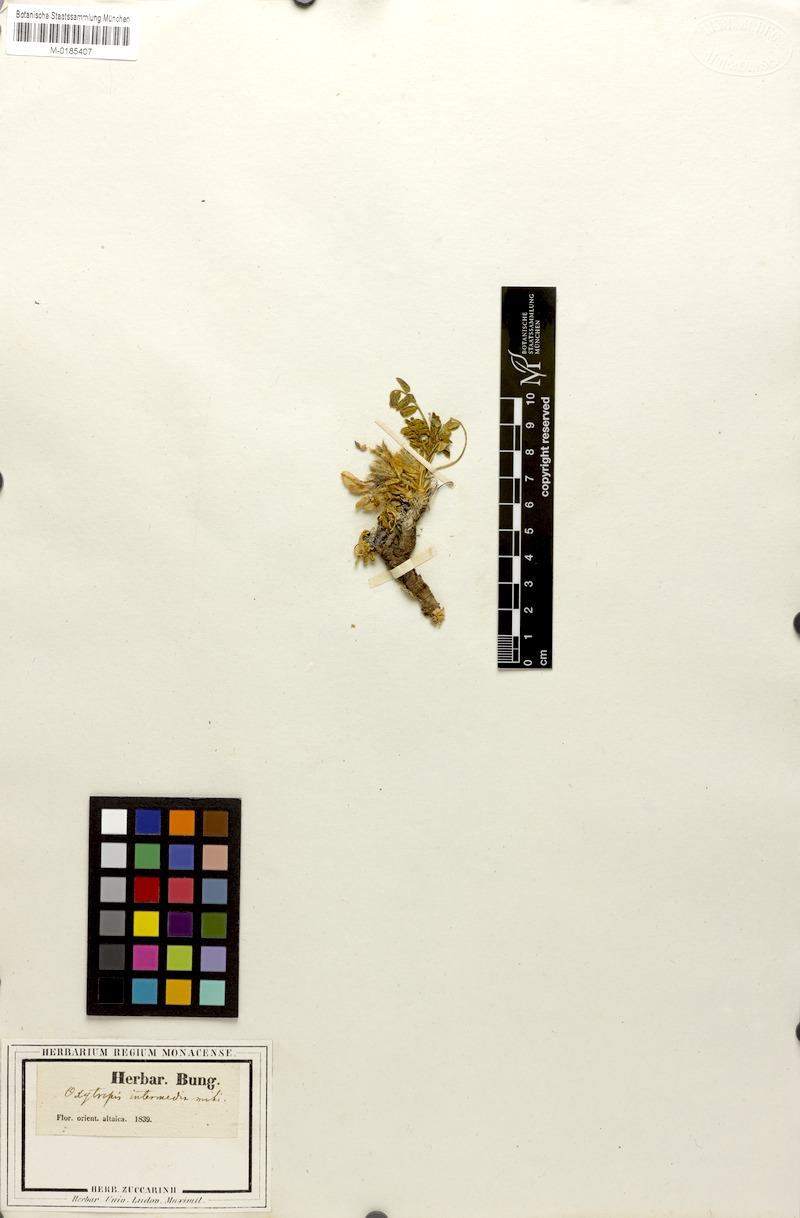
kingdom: Plantae
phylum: Tracheophyta
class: Magnoliopsida
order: Fabales
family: Fabaceae
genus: Oxytropis
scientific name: Oxytropis intermedia
